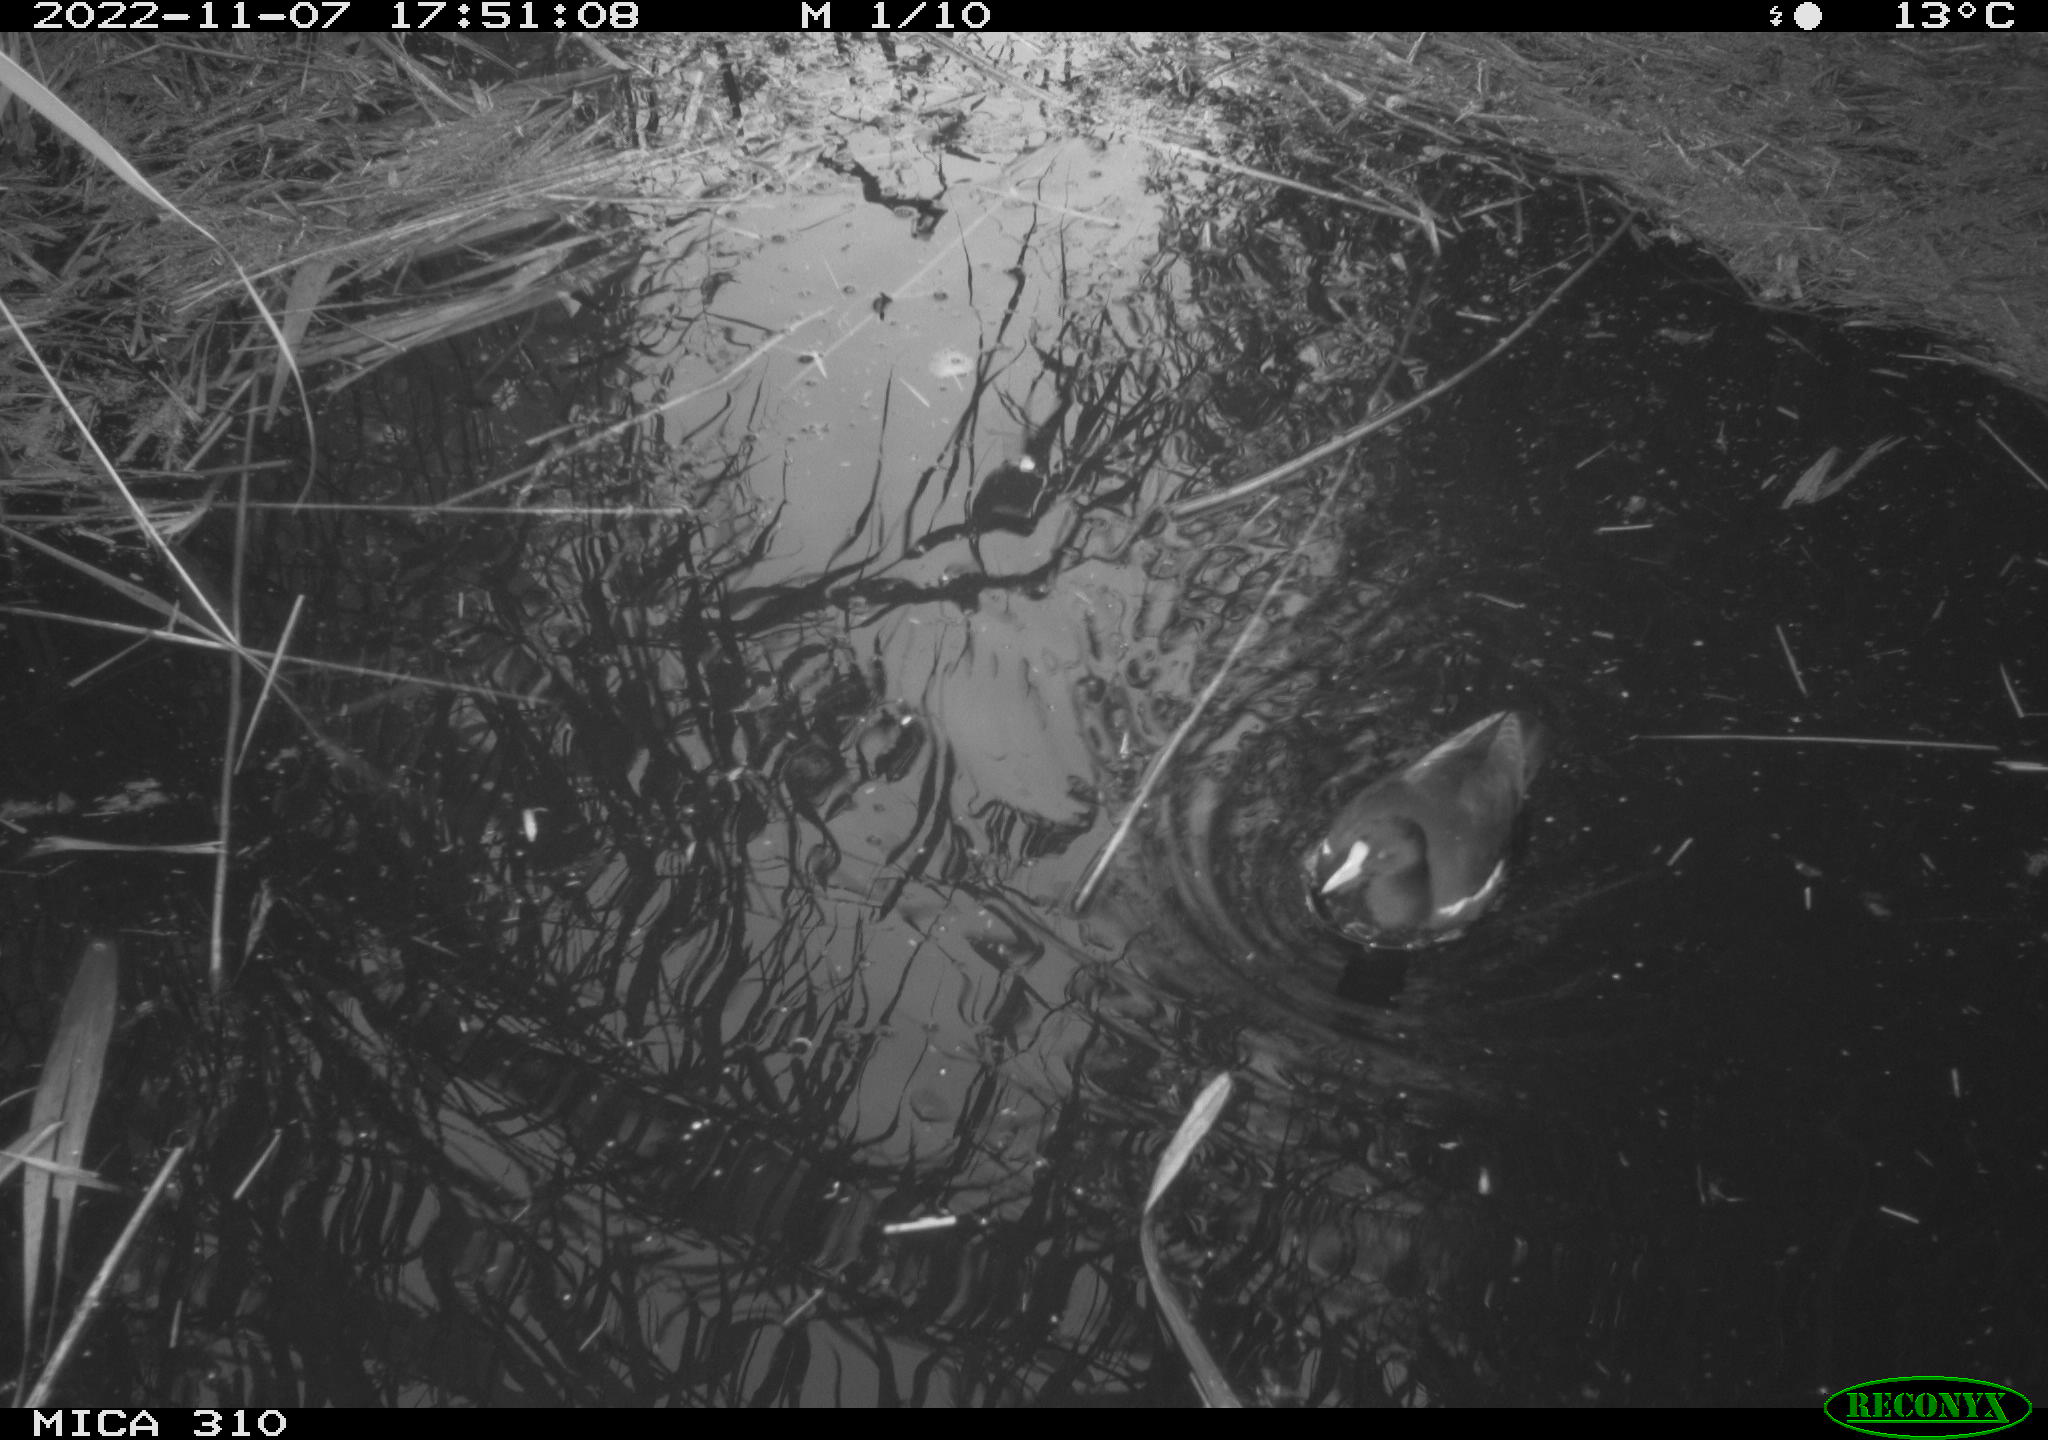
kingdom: Animalia
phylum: Chordata
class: Aves
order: Gruiformes
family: Rallidae
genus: Gallinula
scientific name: Gallinula chloropus
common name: Common moorhen
